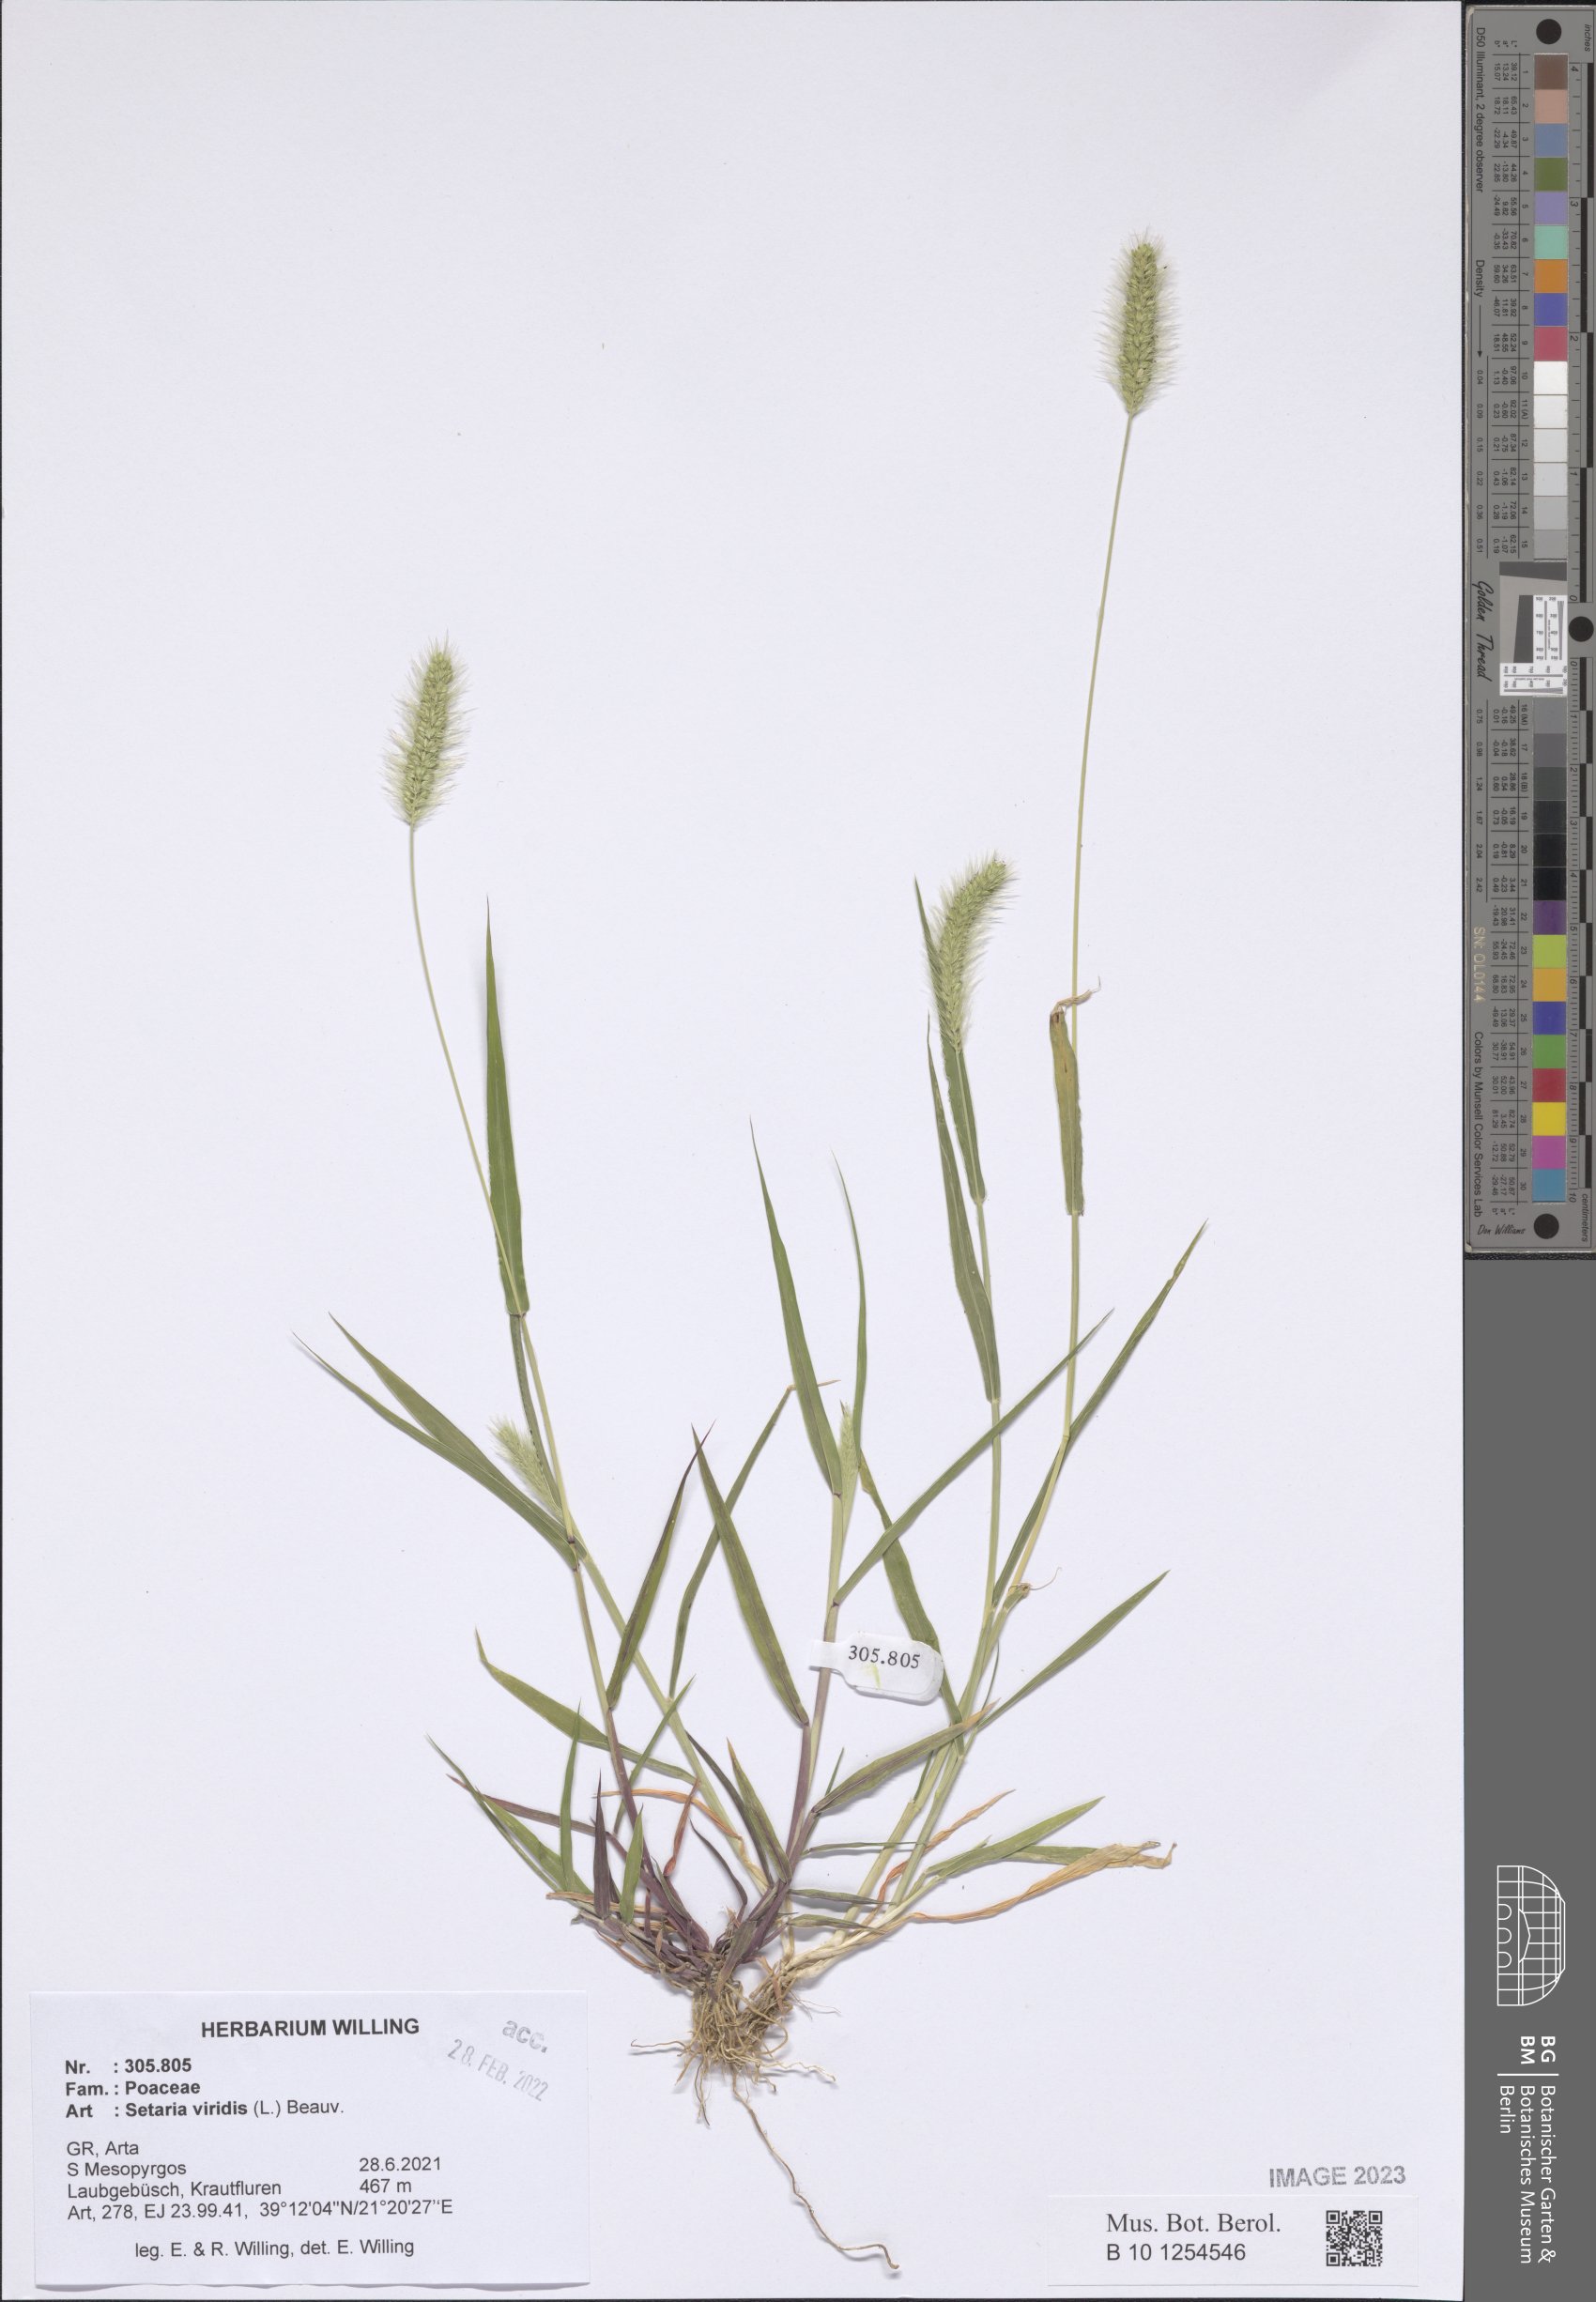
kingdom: Plantae
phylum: Tracheophyta
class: Liliopsida
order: Poales
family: Poaceae
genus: Setaria
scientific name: Setaria viridis
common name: Green bristlegrass
